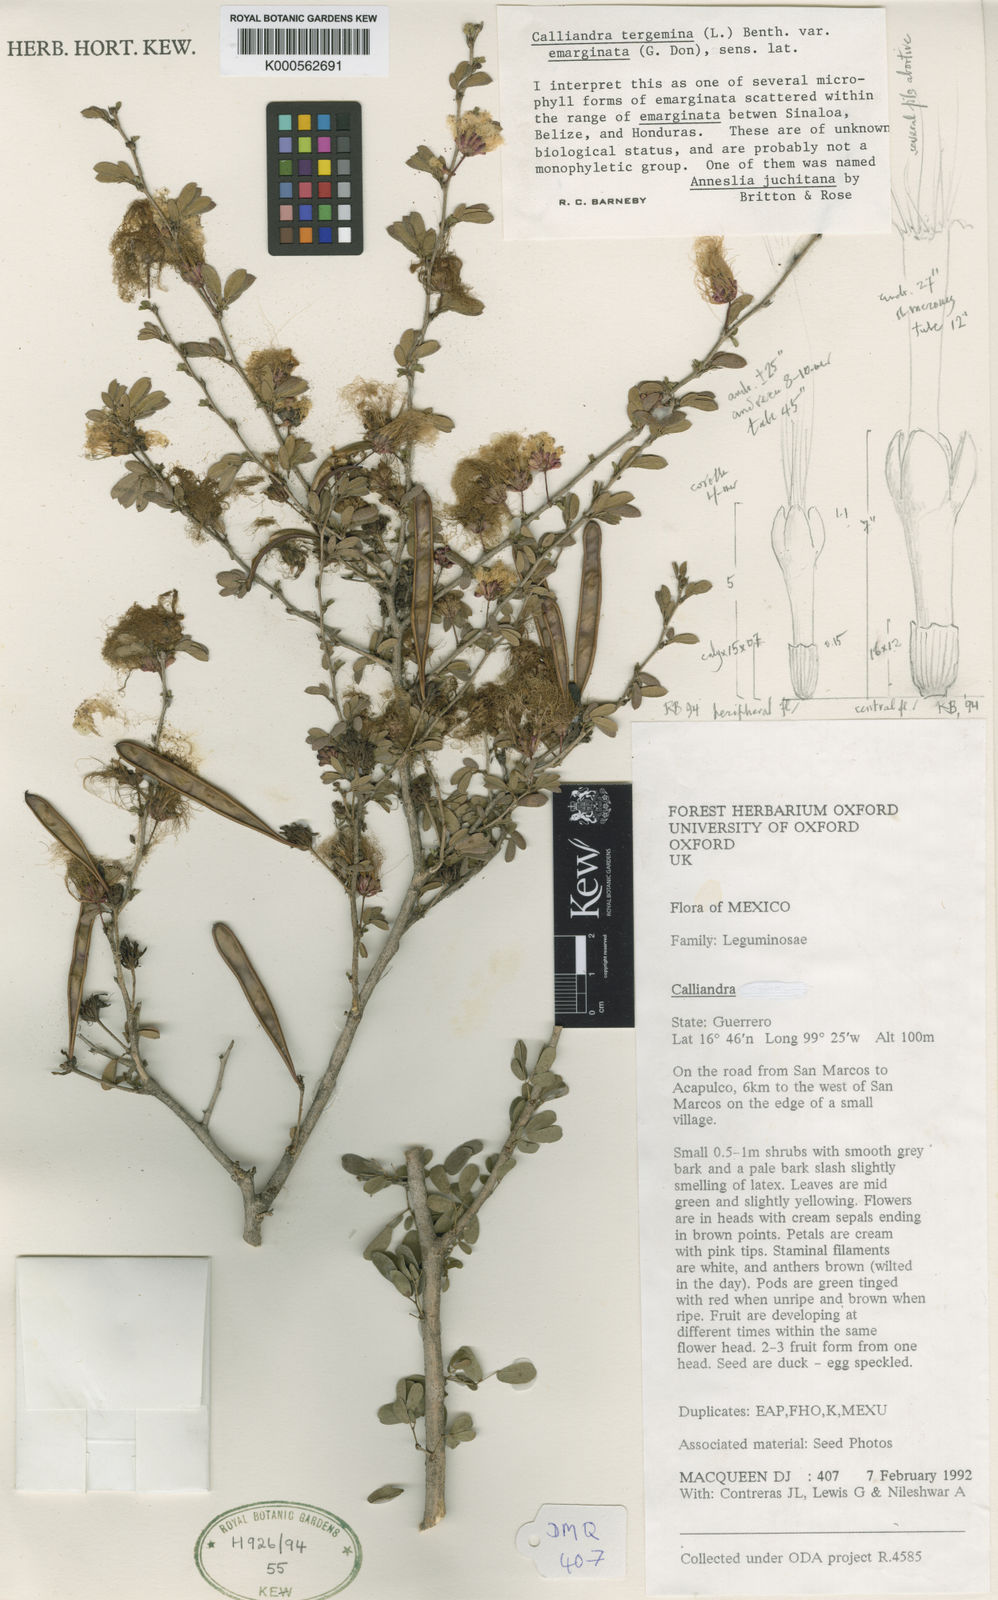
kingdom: Plantae
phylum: Tracheophyta
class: Magnoliopsida
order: Fabales
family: Fabaceae
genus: Calliandra
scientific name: Calliandra tergemina
